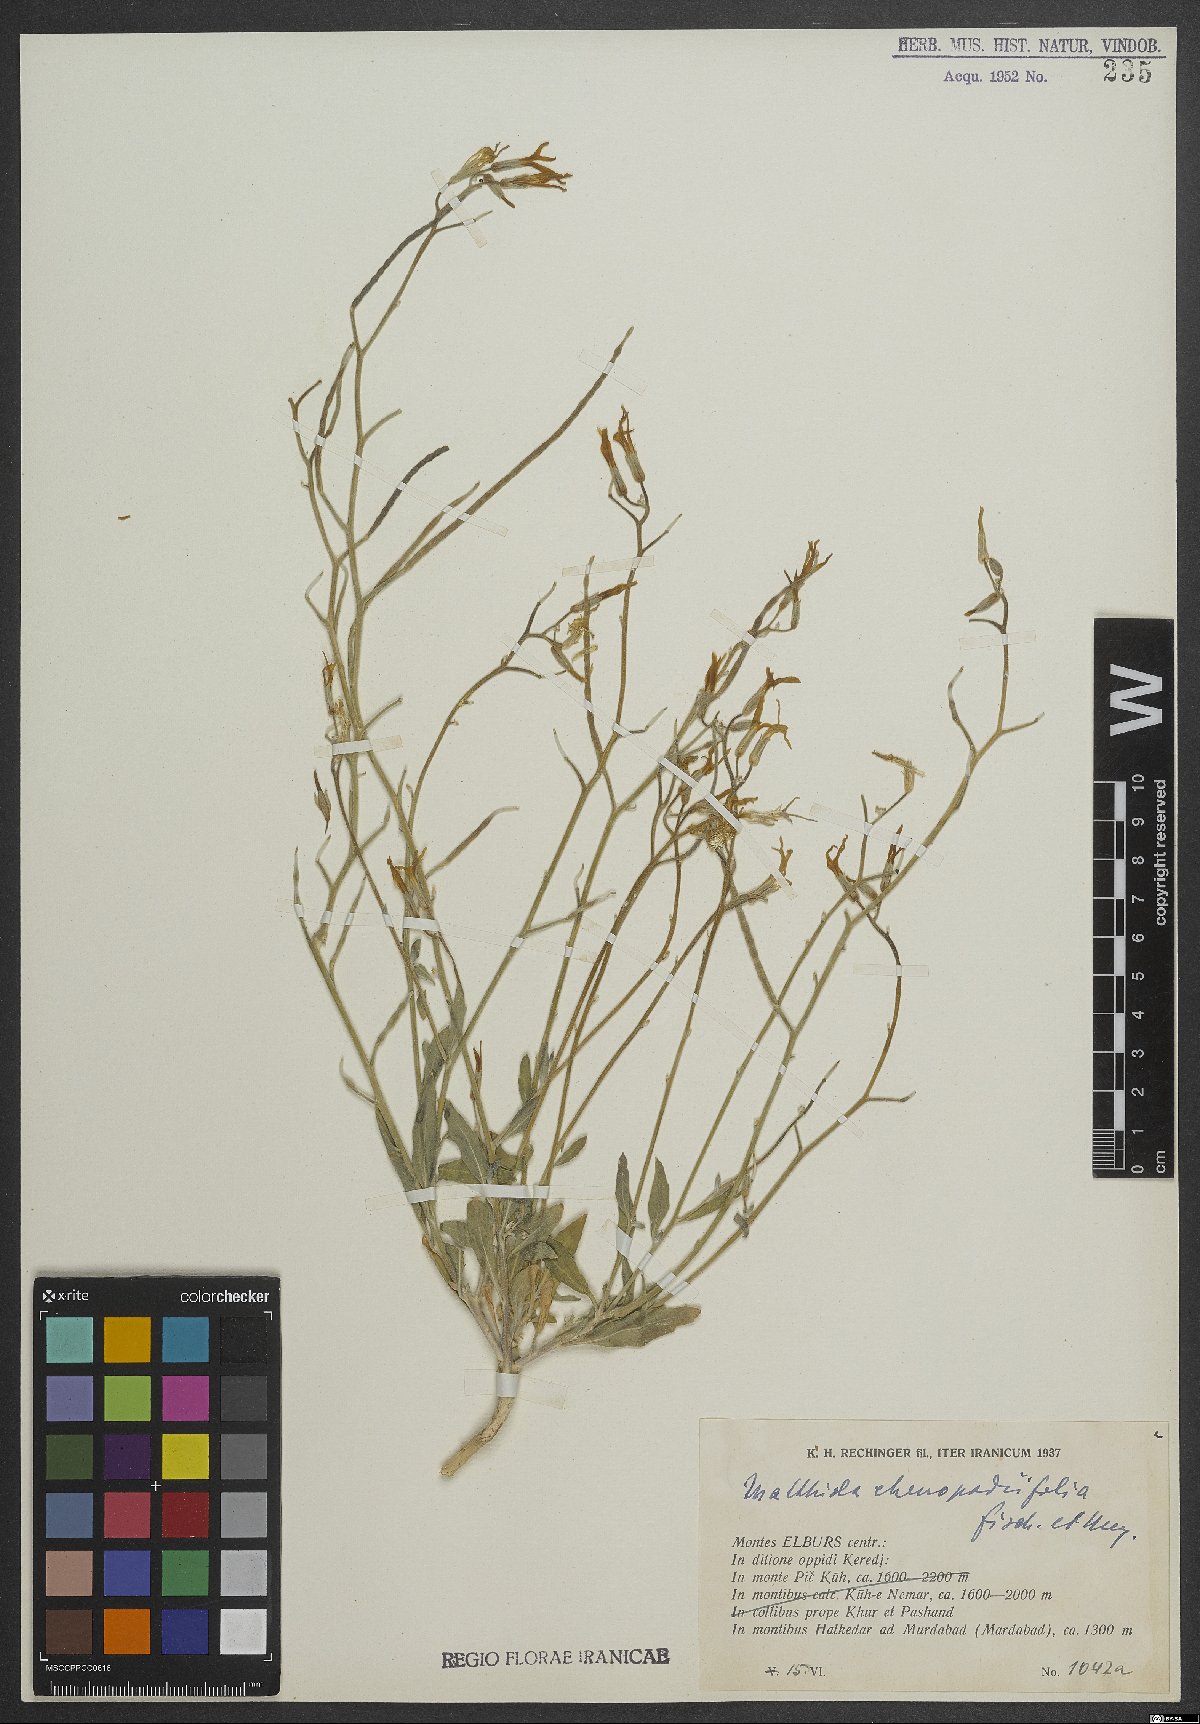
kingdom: Plantae
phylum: Tracheophyta
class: Magnoliopsida
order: Brassicales
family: Brassicaceae
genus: Matthiola
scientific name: Matthiola chenopodiifolia
